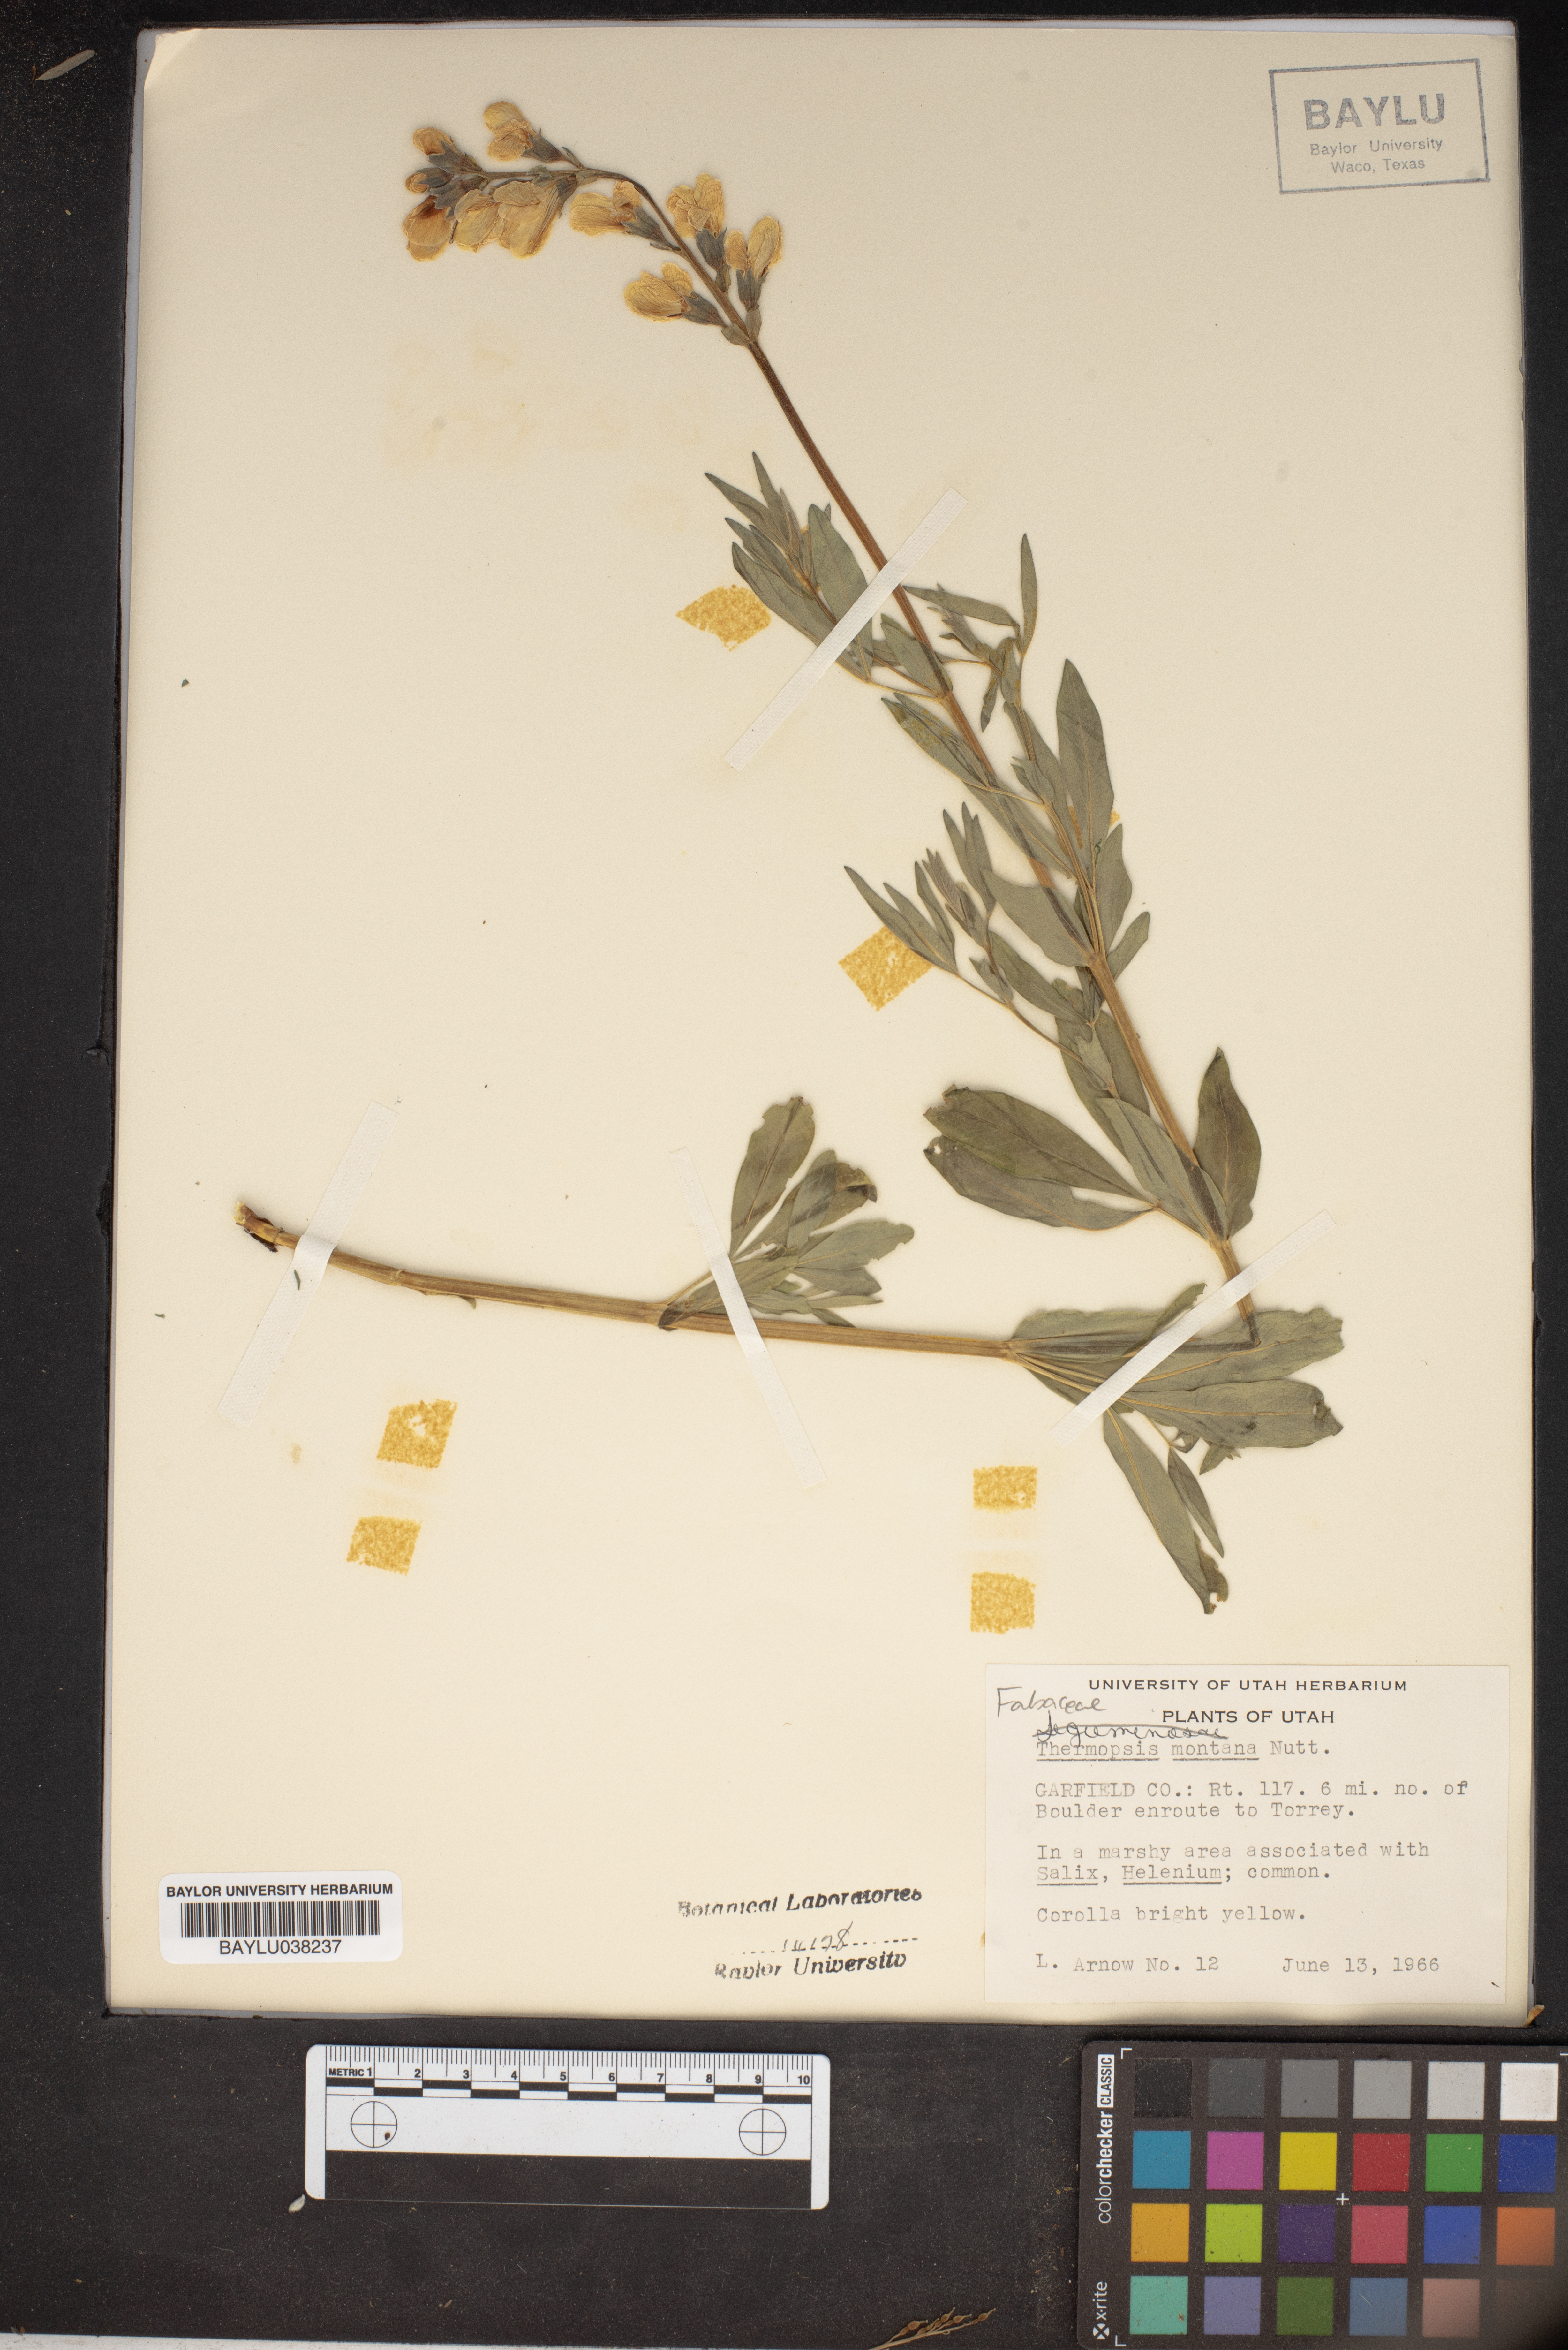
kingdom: Plantae
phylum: Tracheophyta
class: Magnoliopsida
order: Fabales
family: Fabaceae
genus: Thermopsis
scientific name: Thermopsis montana
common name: False lupin
